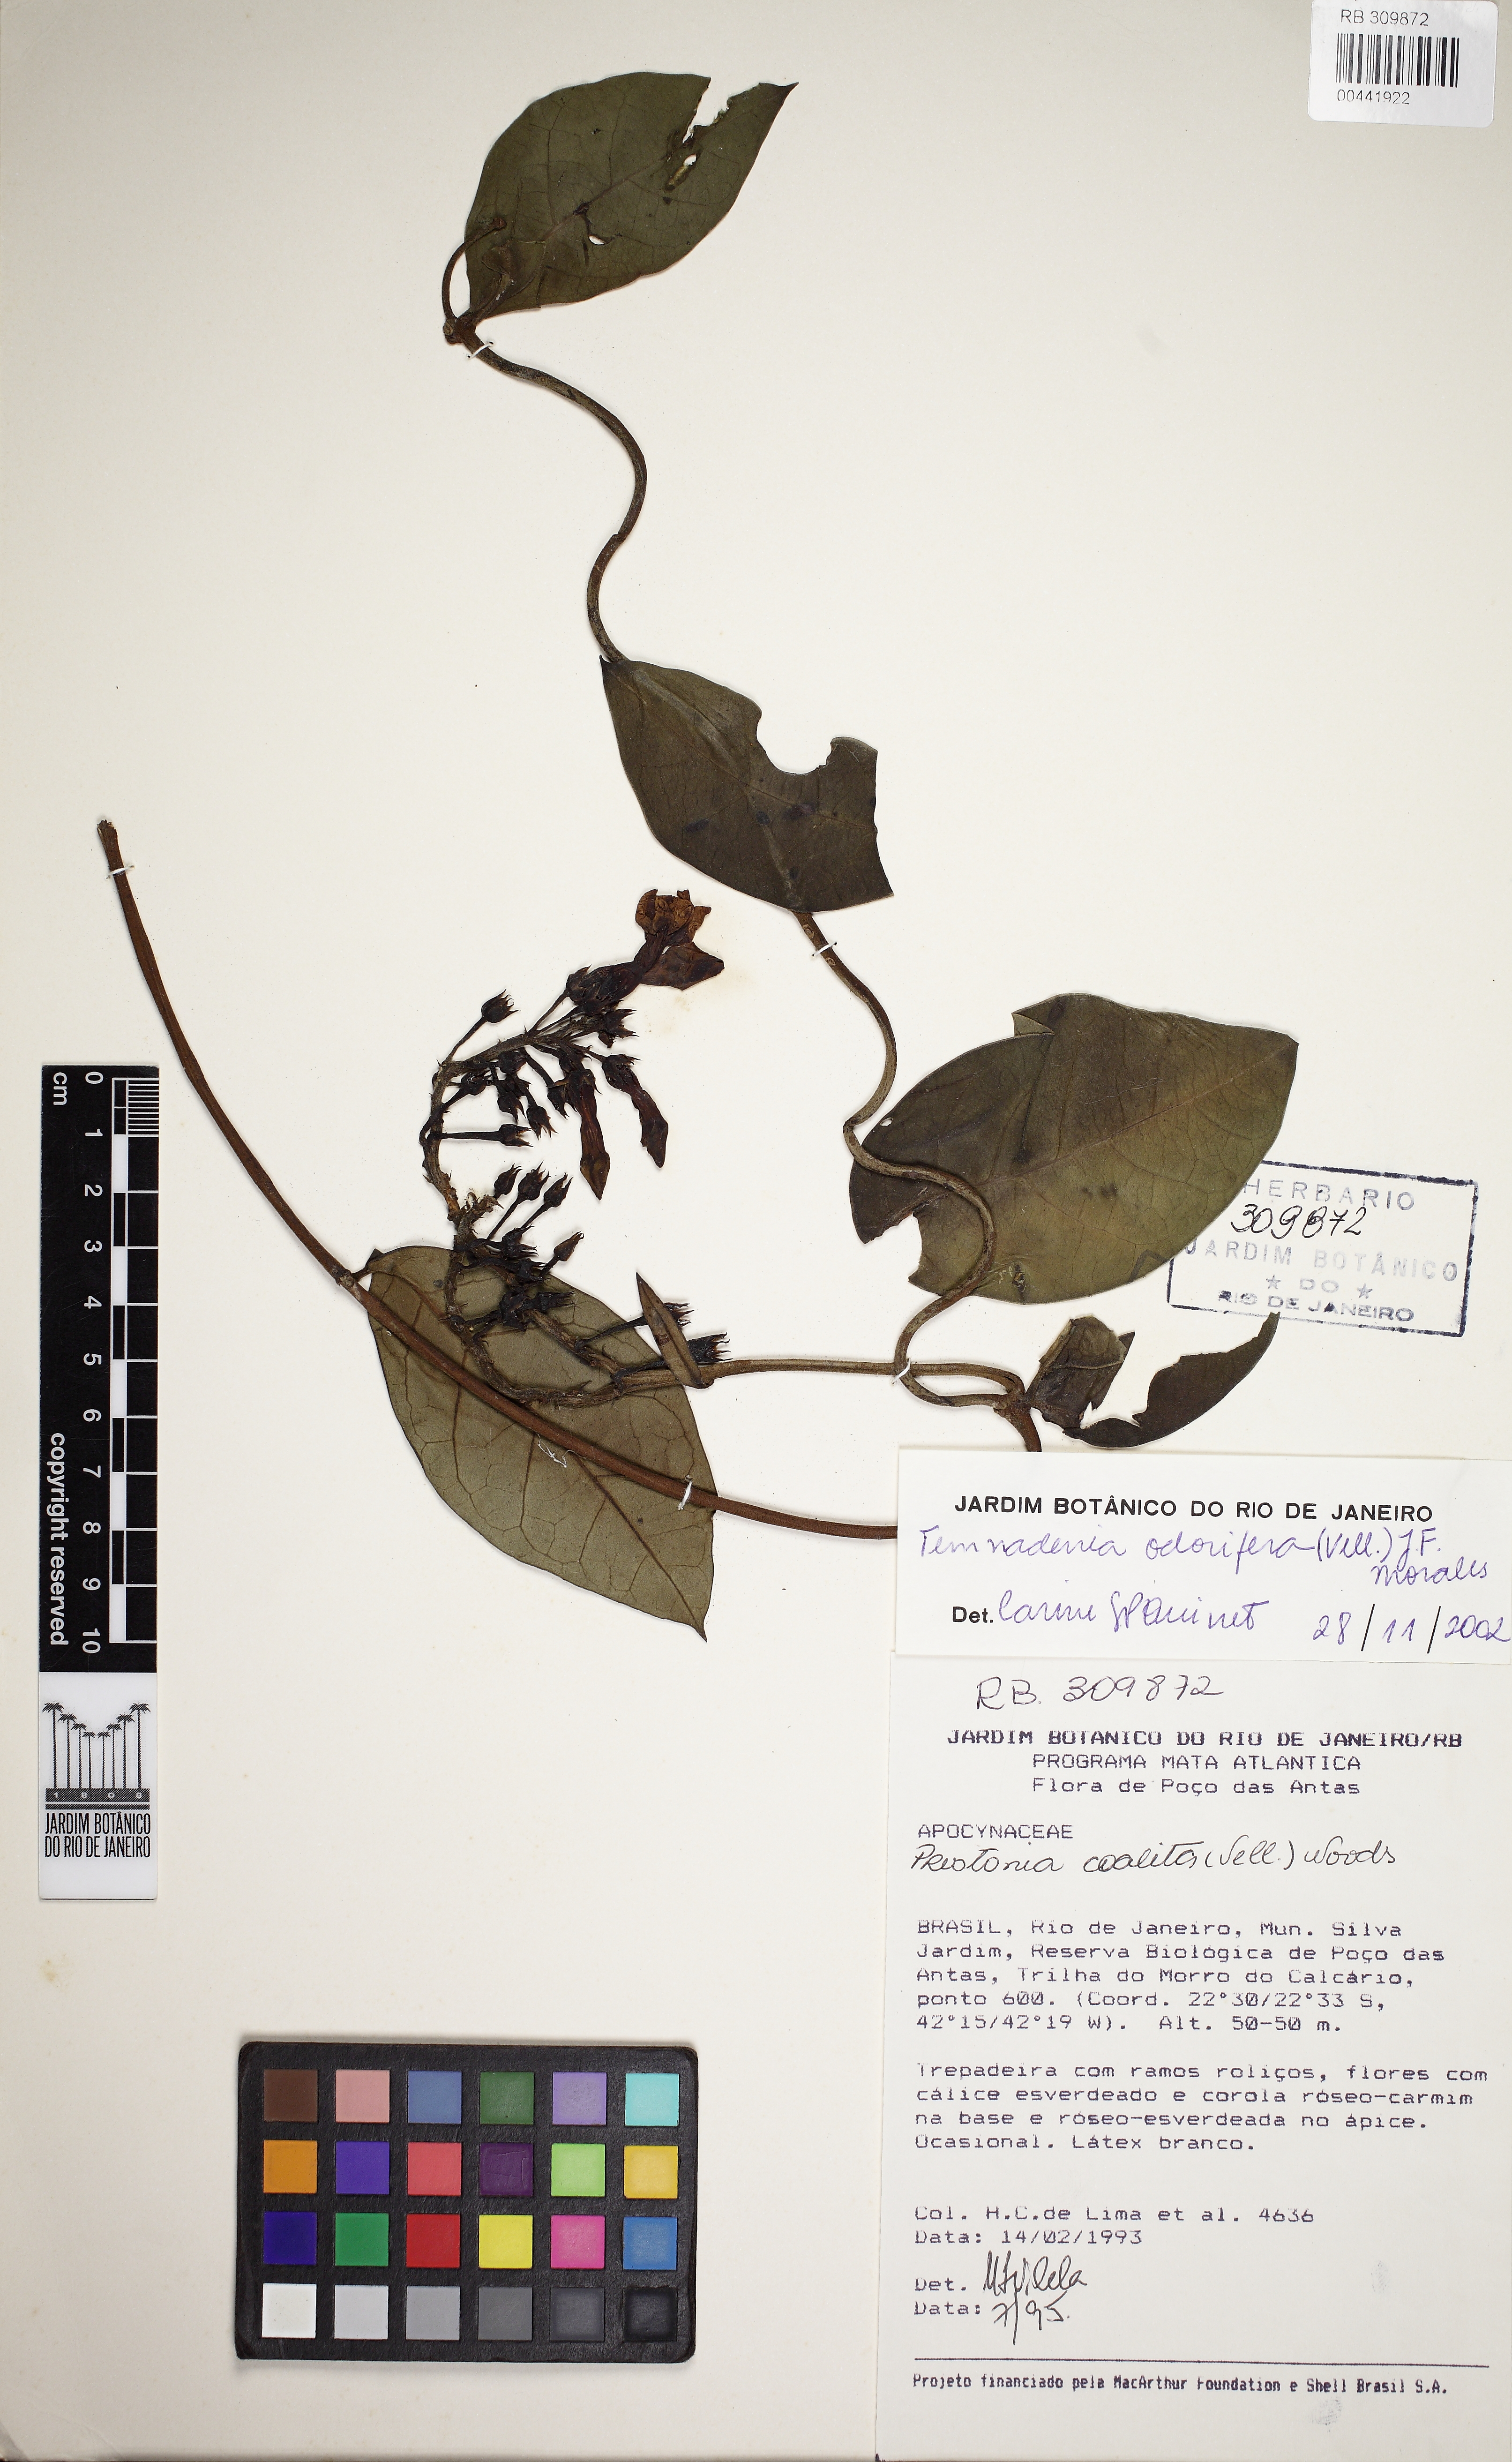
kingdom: Plantae
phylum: Tracheophyta
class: Magnoliopsida
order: Gentianales
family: Apocynaceae
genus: Temnadenia
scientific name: Temnadenia odorifera
